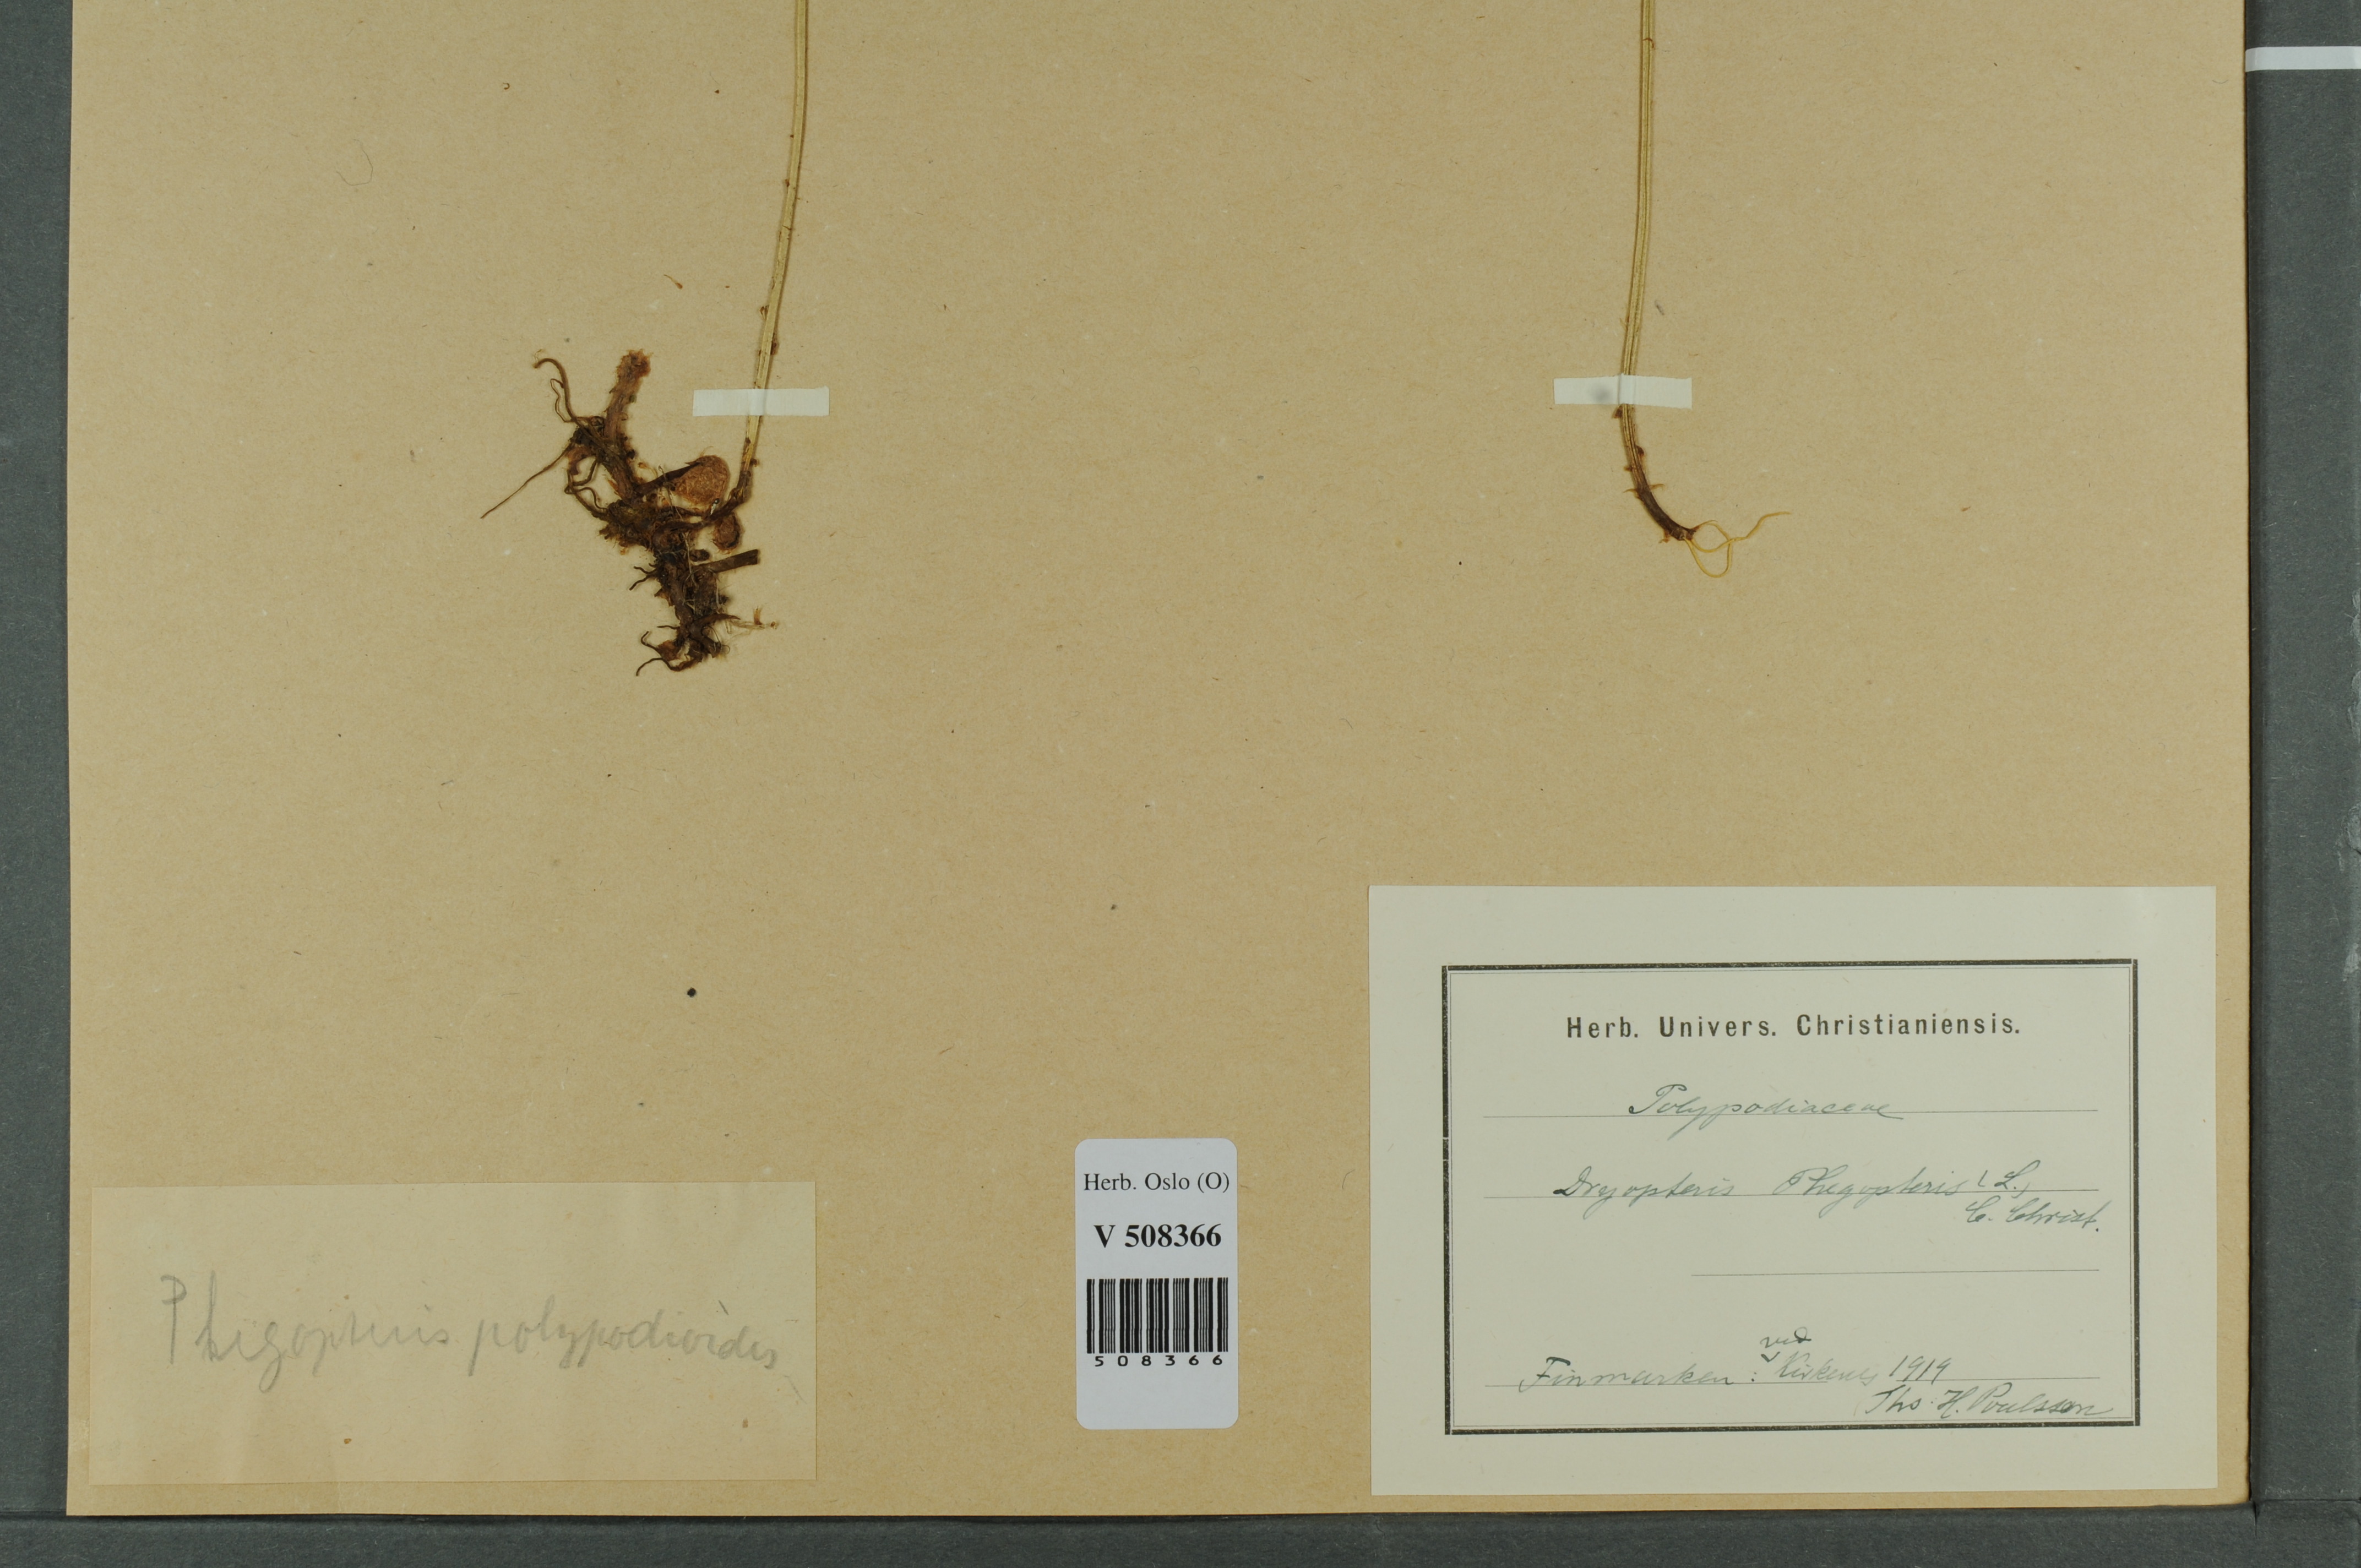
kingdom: Plantae
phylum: Tracheophyta
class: Polypodiopsida
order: Polypodiales
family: Thelypteridaceae
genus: Phegopteris
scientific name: Phegopteris connectilis
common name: Beech fern
